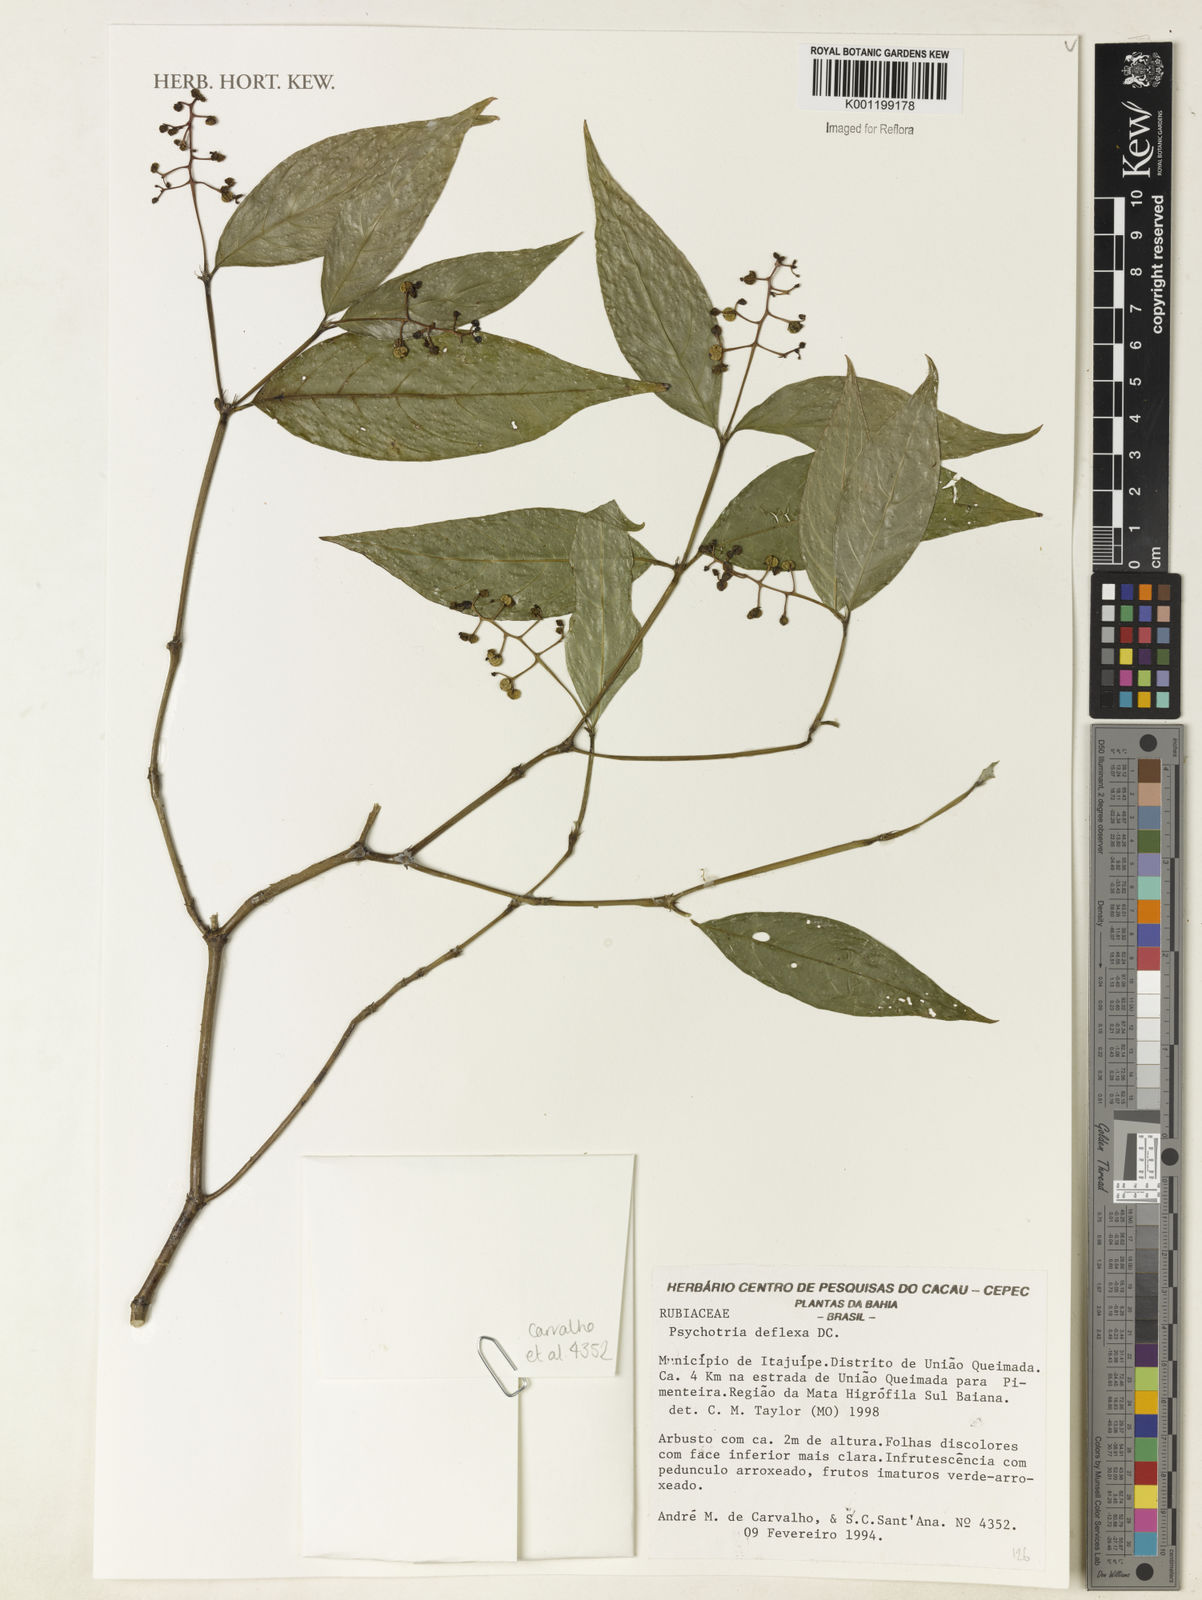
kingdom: Plantae
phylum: Tracheophyta
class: Magnoliopsida
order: Gentianales
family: Rubiaceae
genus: Palicourea
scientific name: Palicourea deflexa
